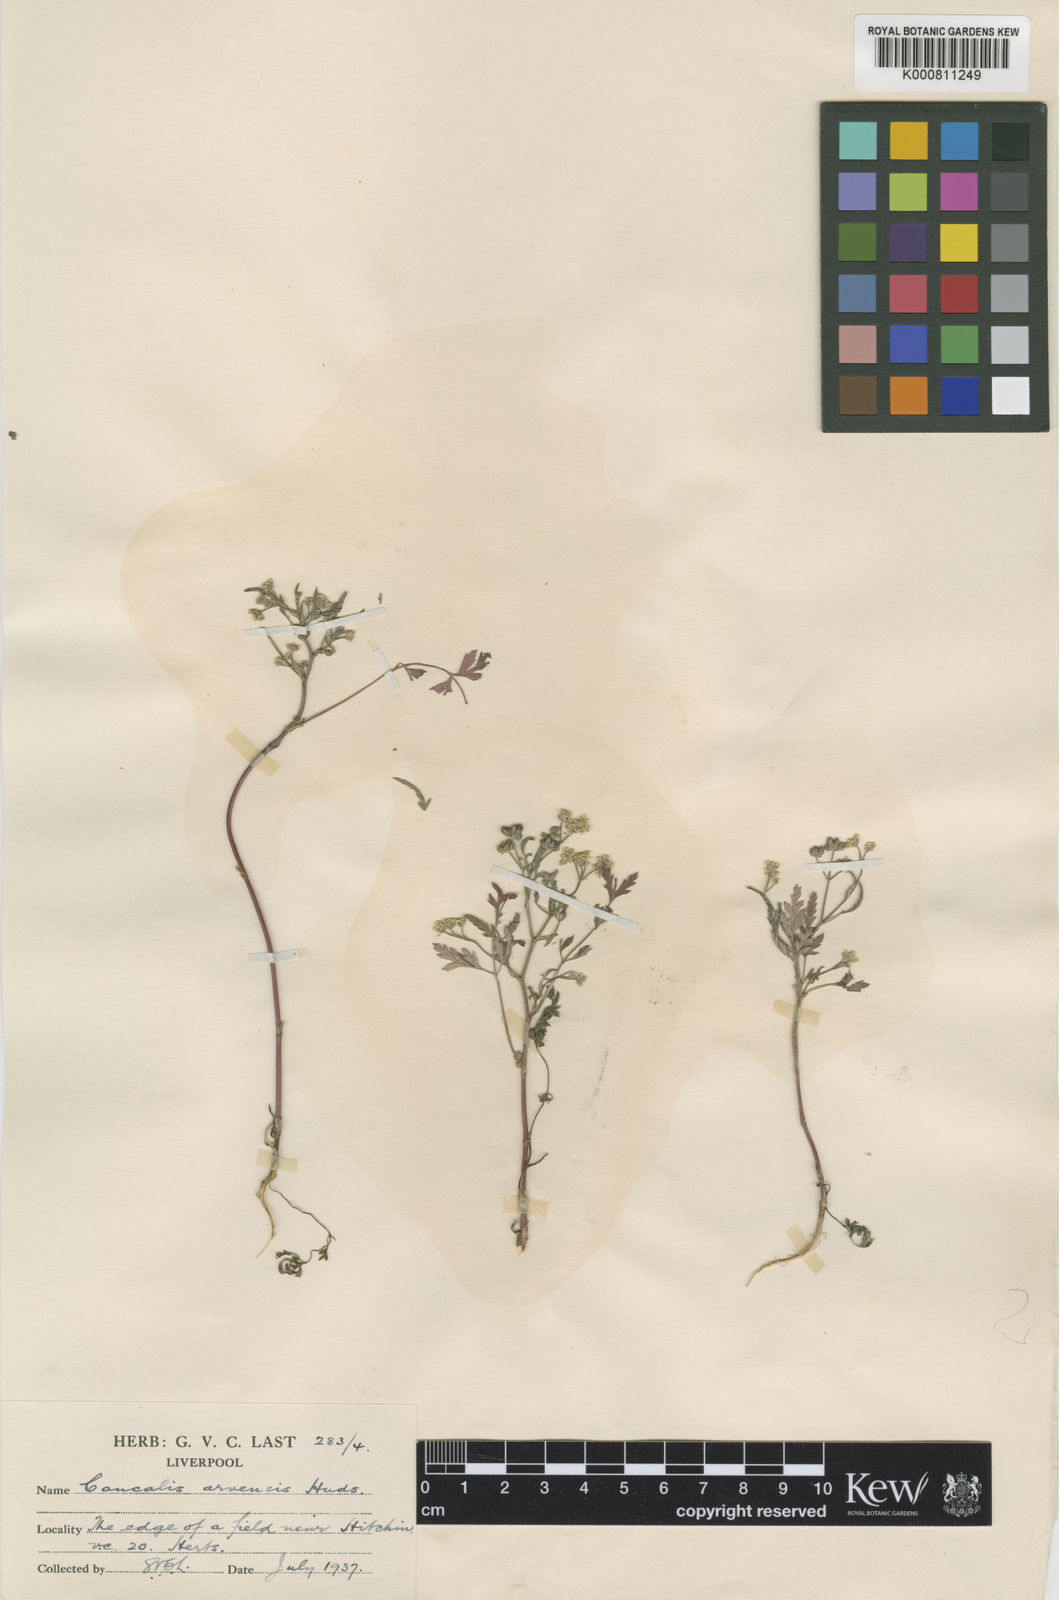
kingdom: Plantae
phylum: Tracheophyta
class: Magnoliopsida
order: Apiales
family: Apiaceae
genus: Torilis
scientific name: Torilis arvensis
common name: Spreading hedge-parsley
